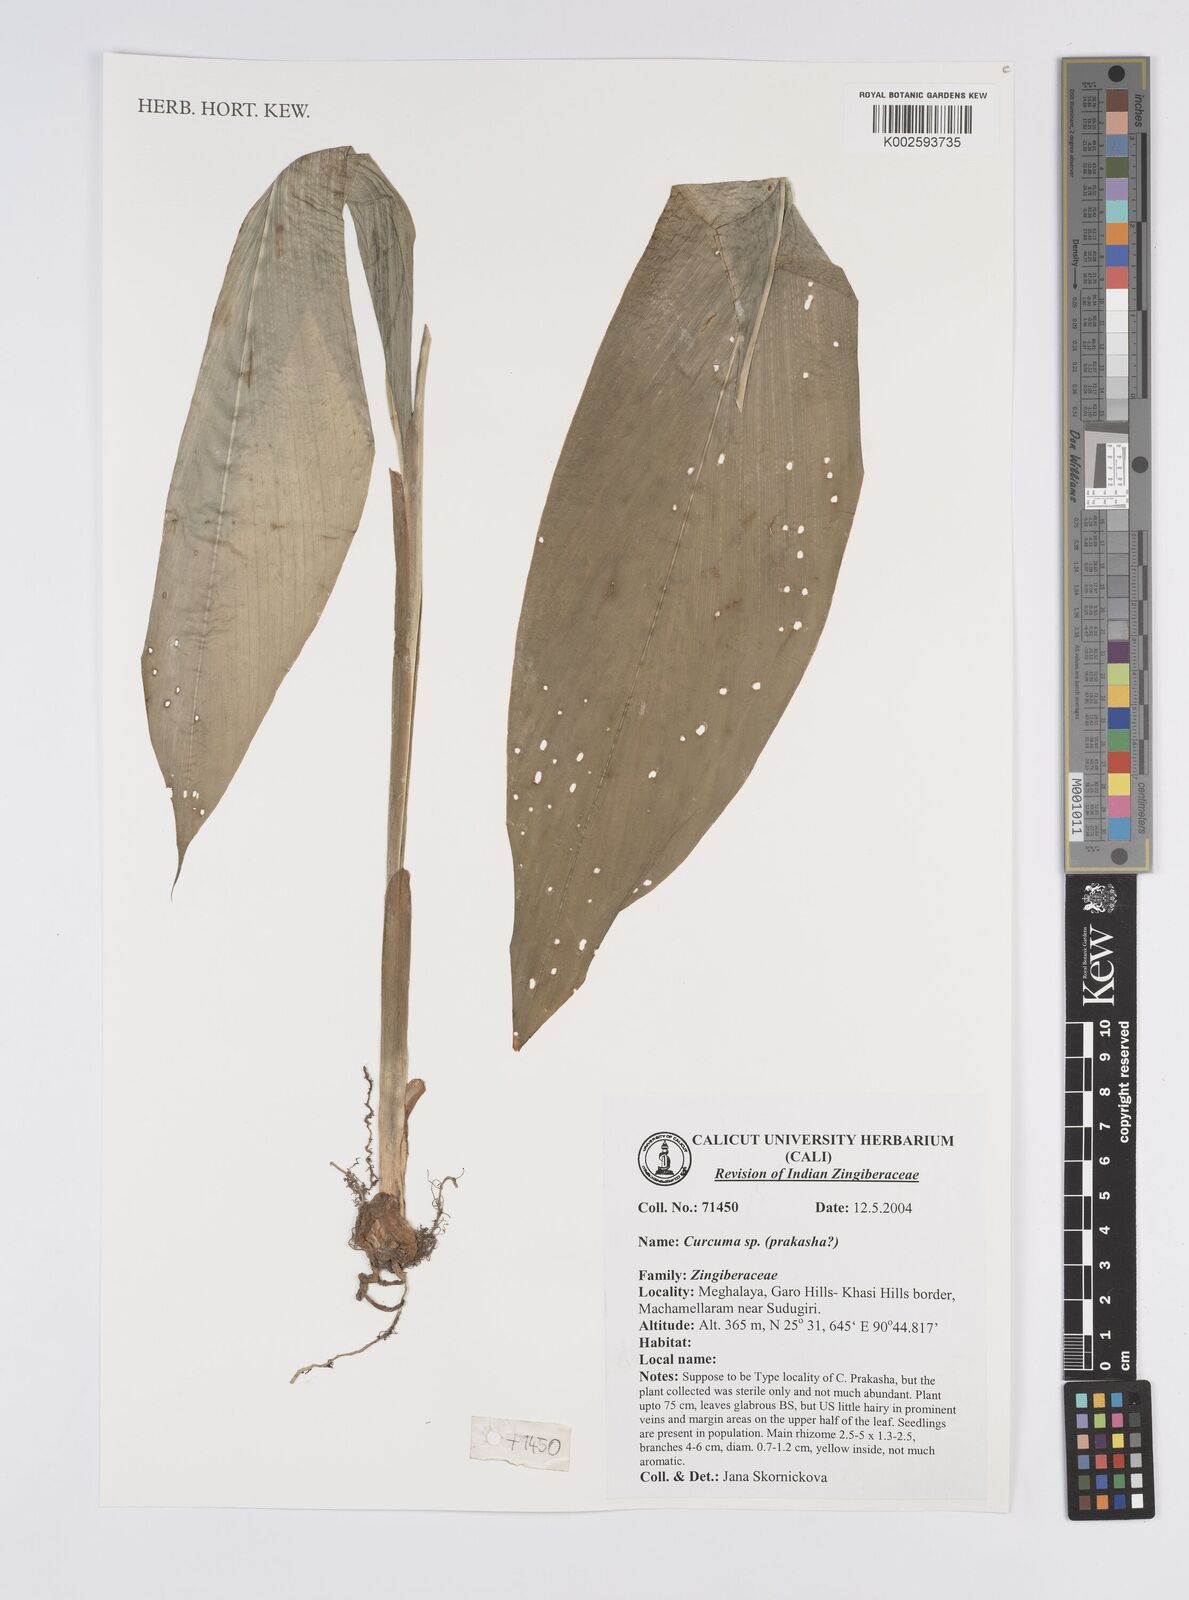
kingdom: Plantae
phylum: Tracheophyta
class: Liliopsida
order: Zingiberales
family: Zingiberaceae
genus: Curcuma
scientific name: Curcuma prakasha
